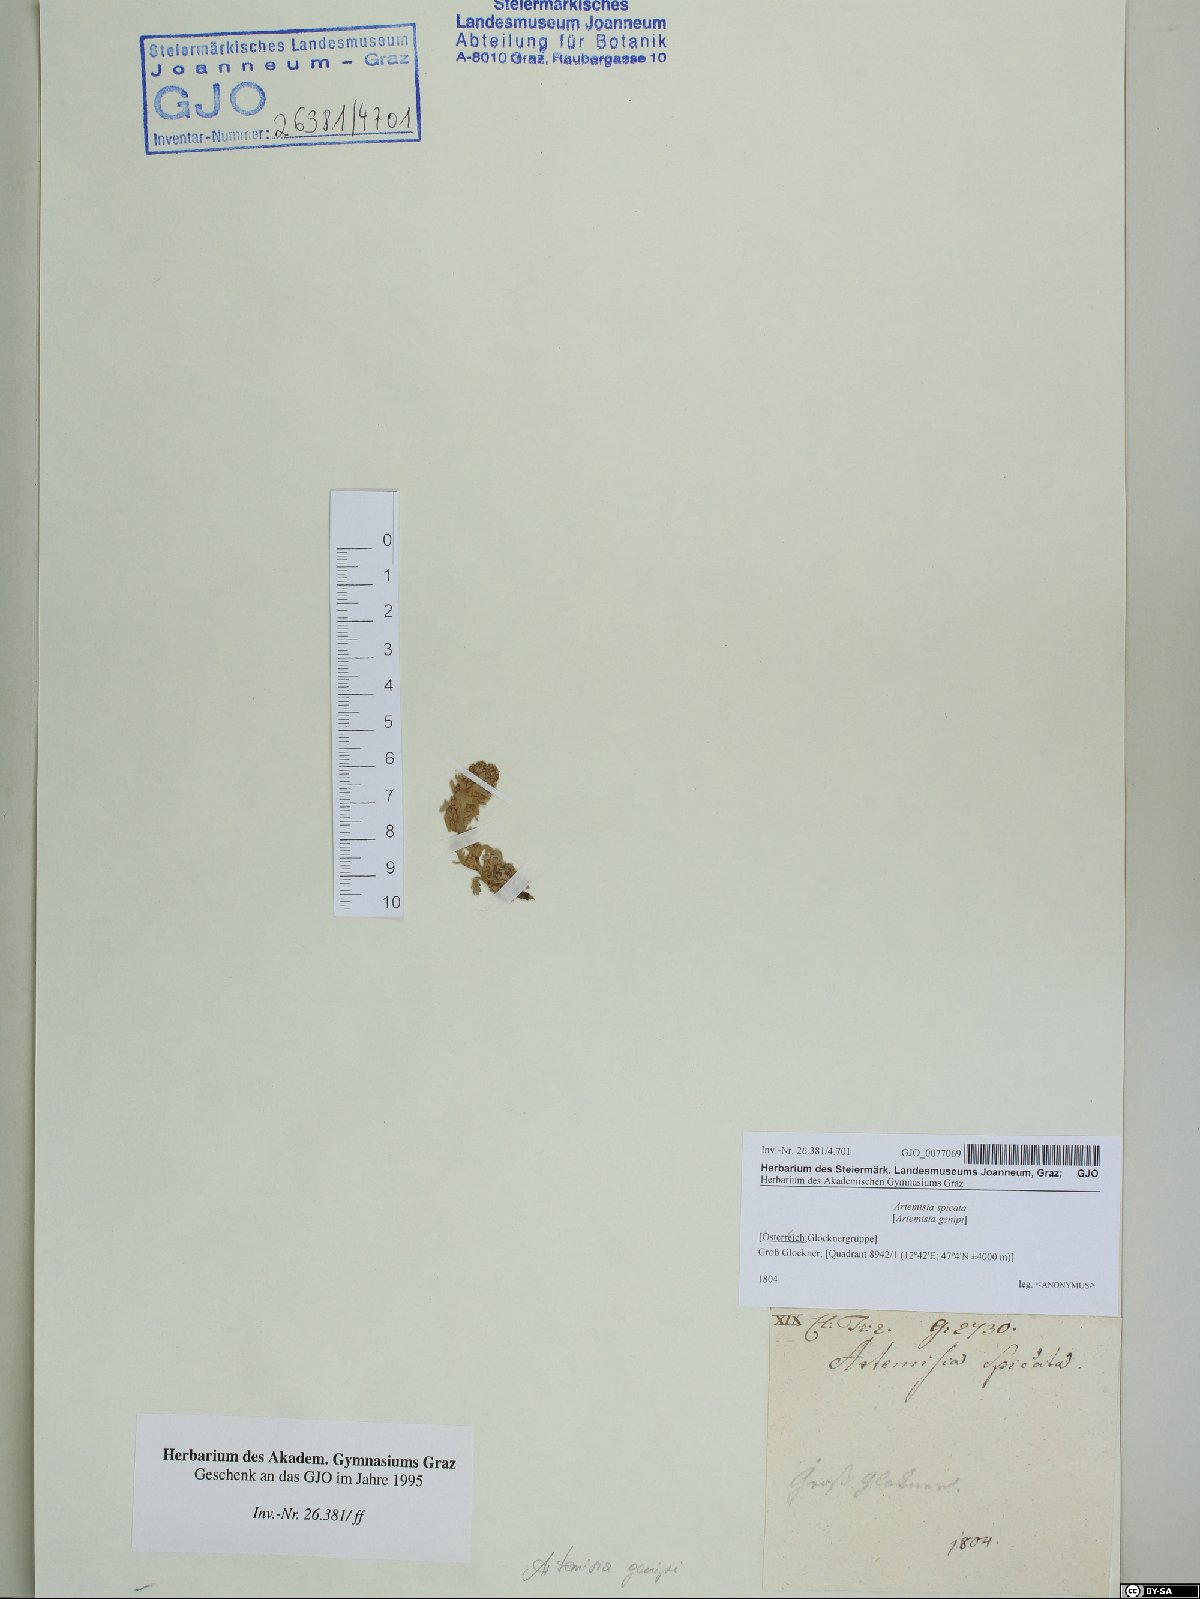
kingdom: Plantae
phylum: Tracheophyta
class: Magnoliopsida
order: Asterales
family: Asteraceae
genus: Artemisia
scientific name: Artemisia genipi
